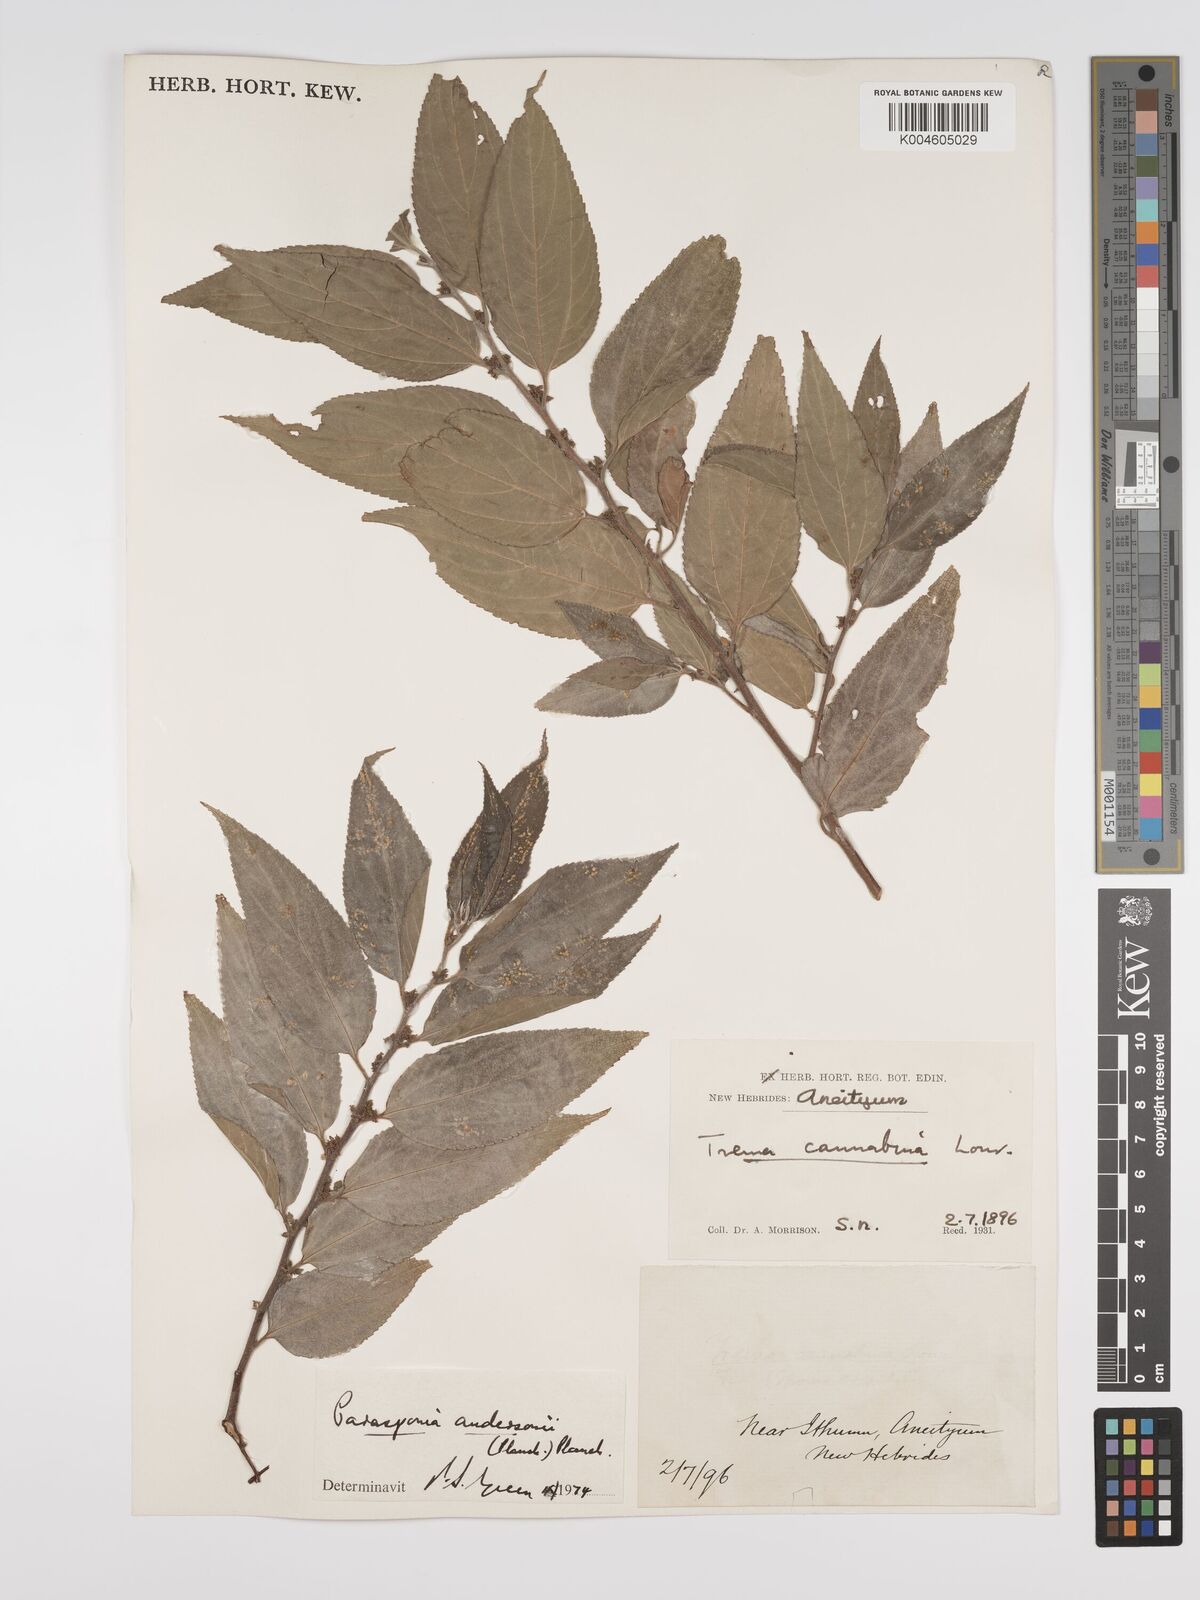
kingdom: Plantae
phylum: Tracheophyta
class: Magnoliopsida
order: Rosales
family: Cannabaceae
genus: Trema
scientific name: Trema andersonii
